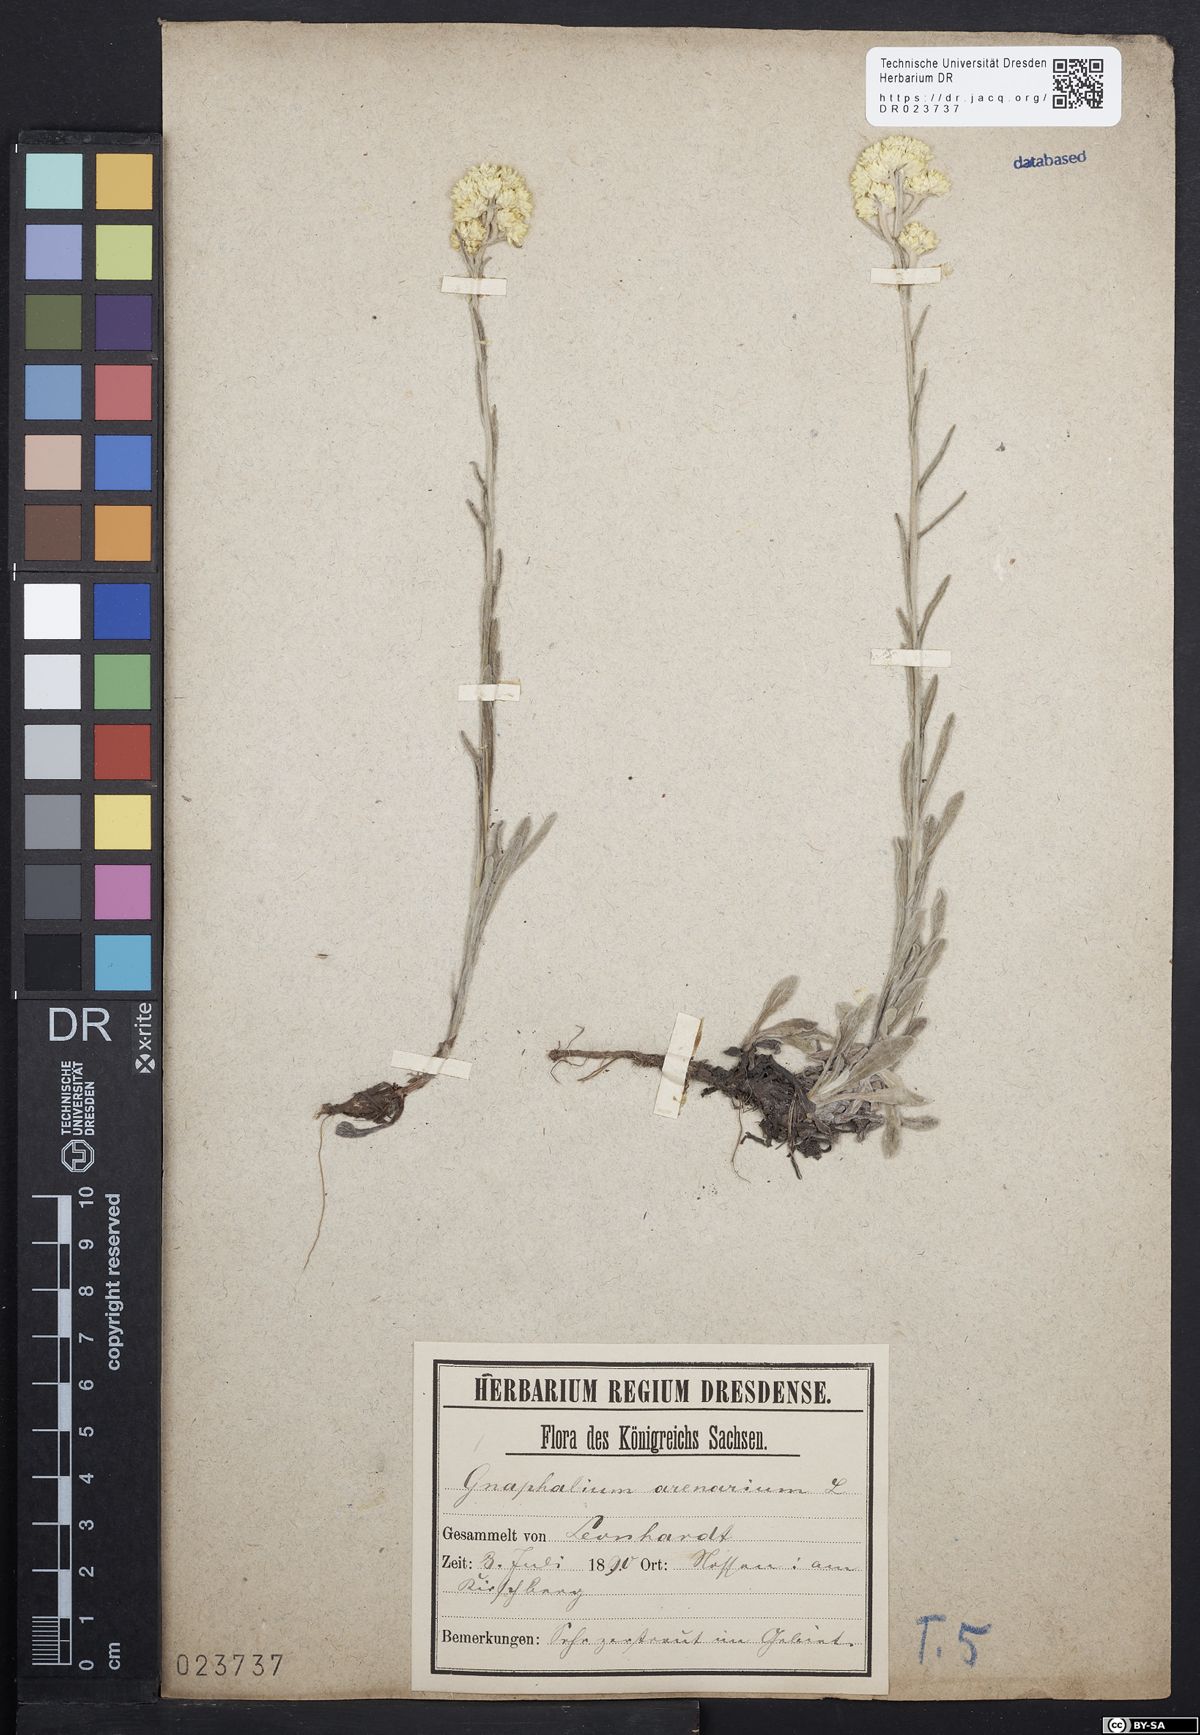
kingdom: Plantae
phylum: Tracheophyta
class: Magnoliopsida
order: Asterales
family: Asteraceae
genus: Helichrysum
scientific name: Helichrysum arenarium
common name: Strawflower
